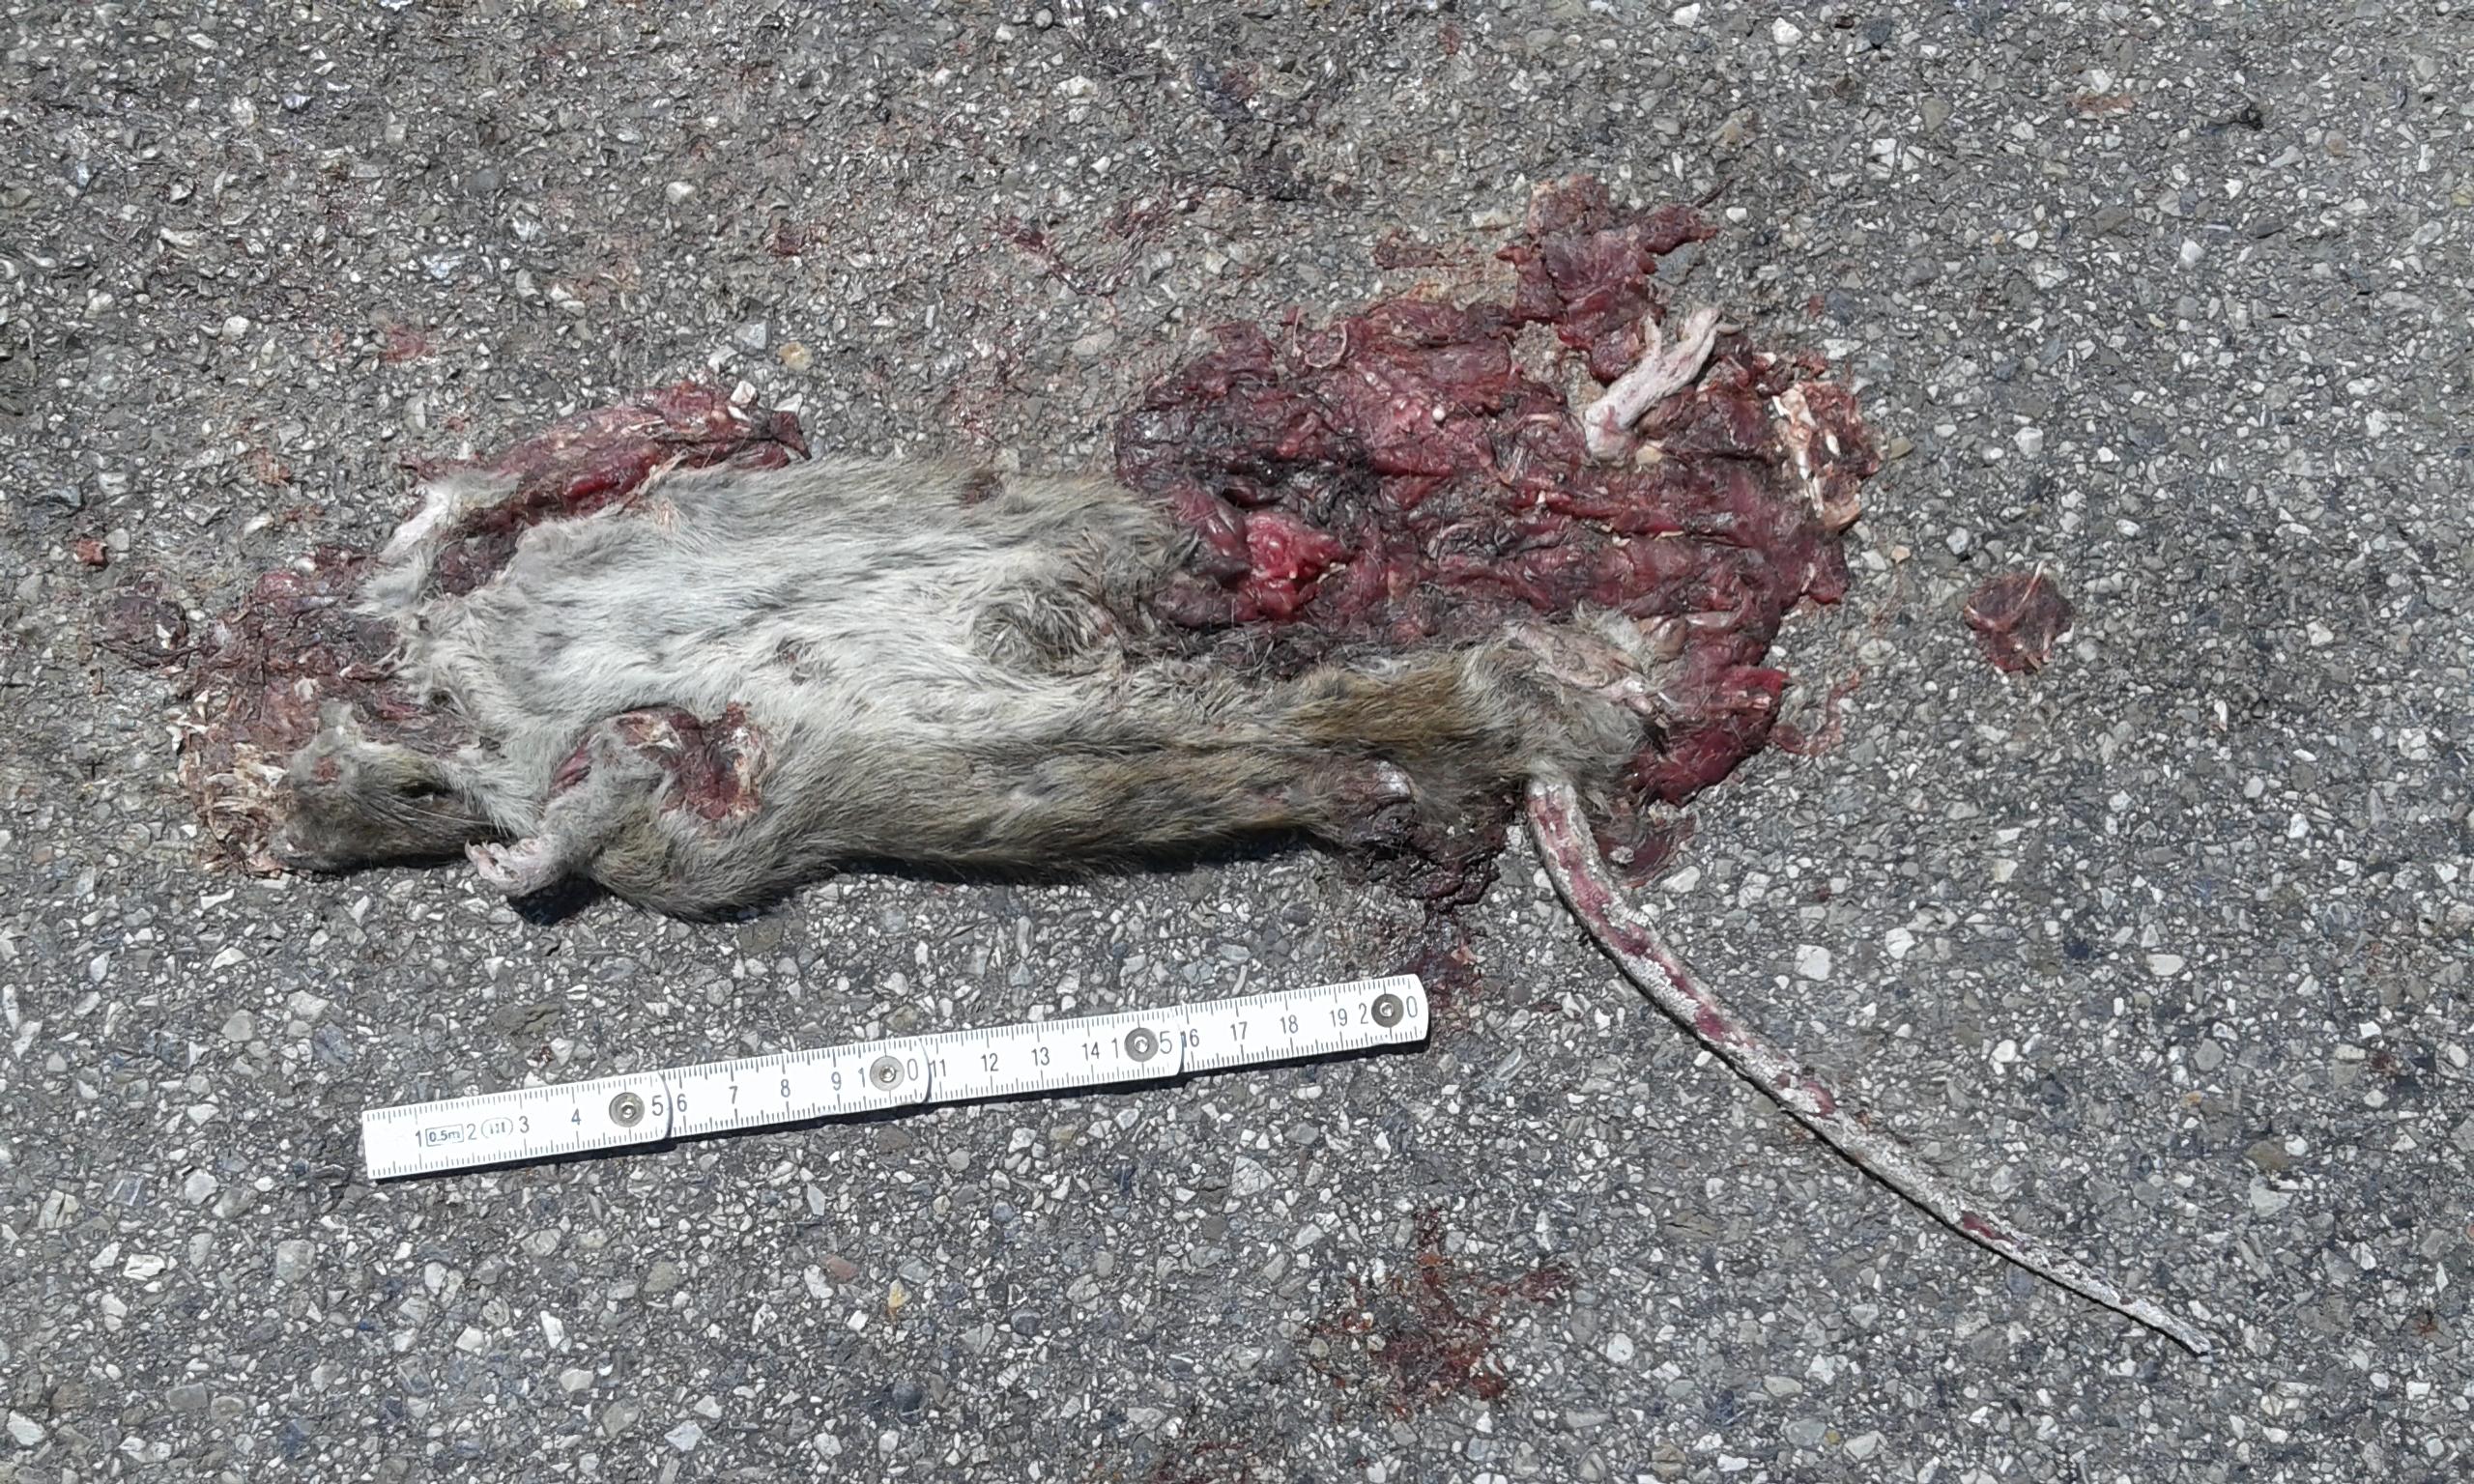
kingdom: Animalia
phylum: Chordata
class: Mammalia
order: Rodentia
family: Muridae
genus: Rattus
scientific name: Rattus norvegicus
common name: Brown rat
